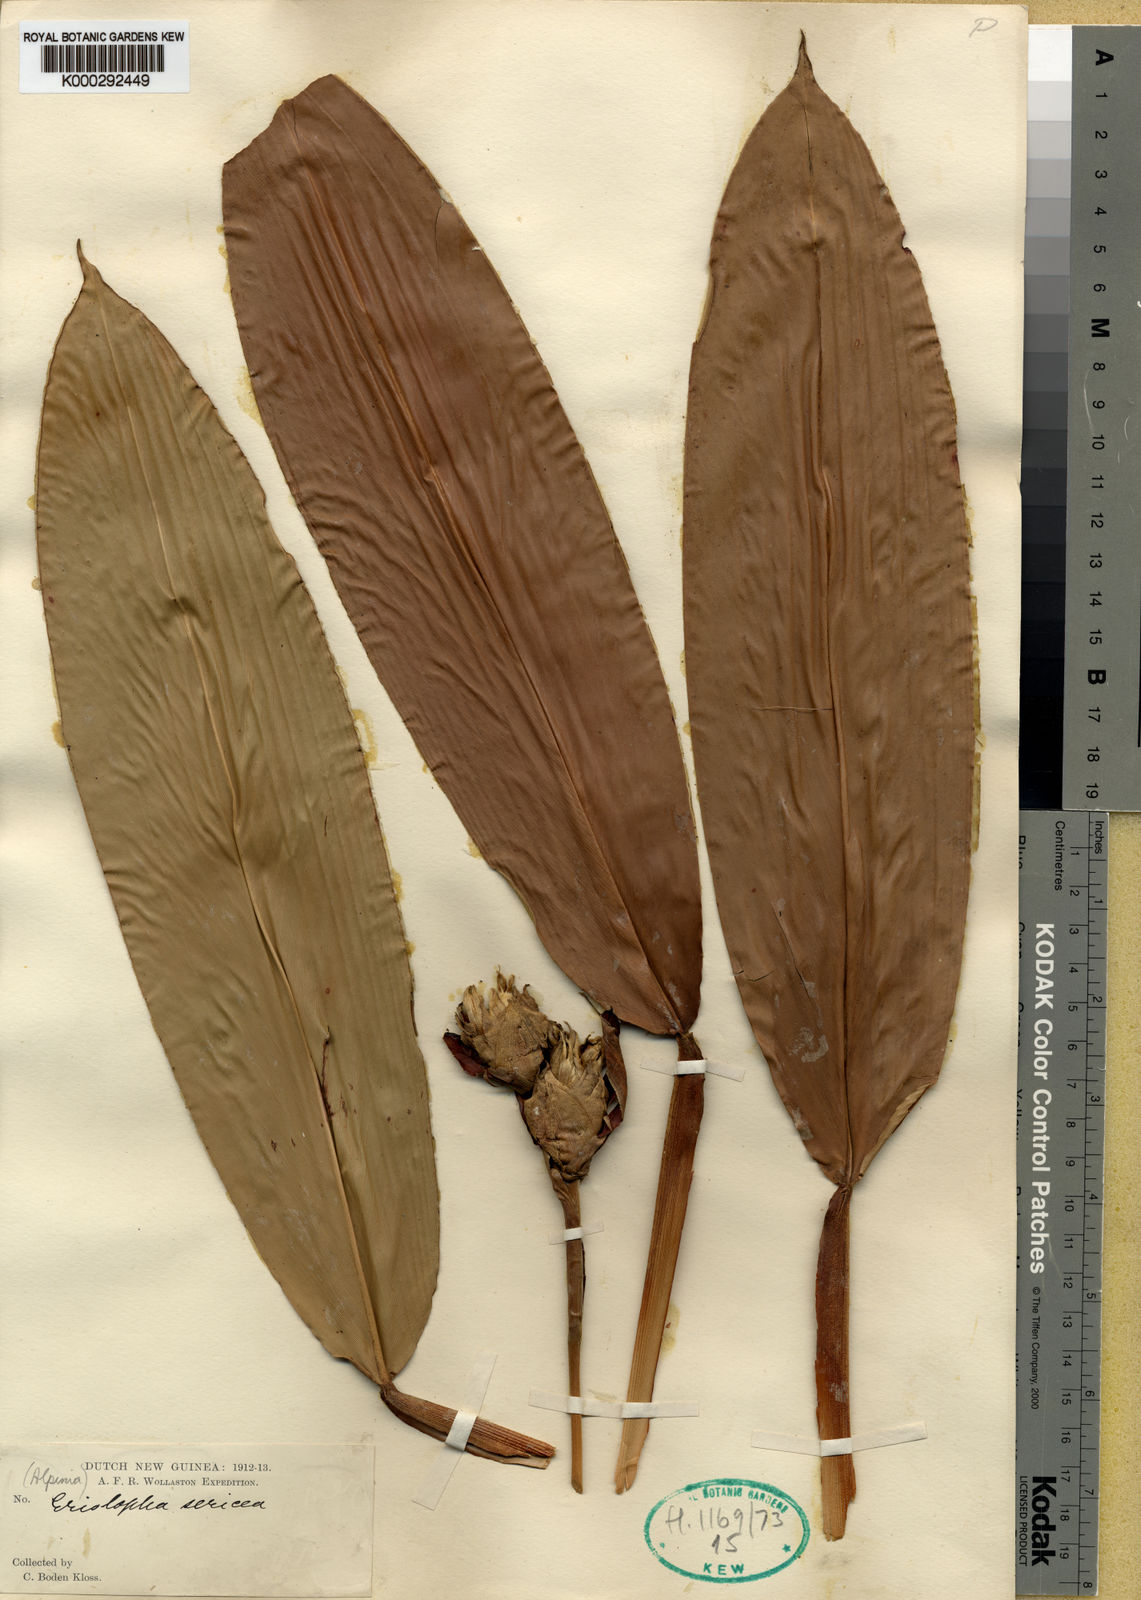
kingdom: Plantae
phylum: Tracheophyta
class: Liliopsida
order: Zingiberales
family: Zingiberaceae
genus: Alpinia
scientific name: Alpinia bodenii
